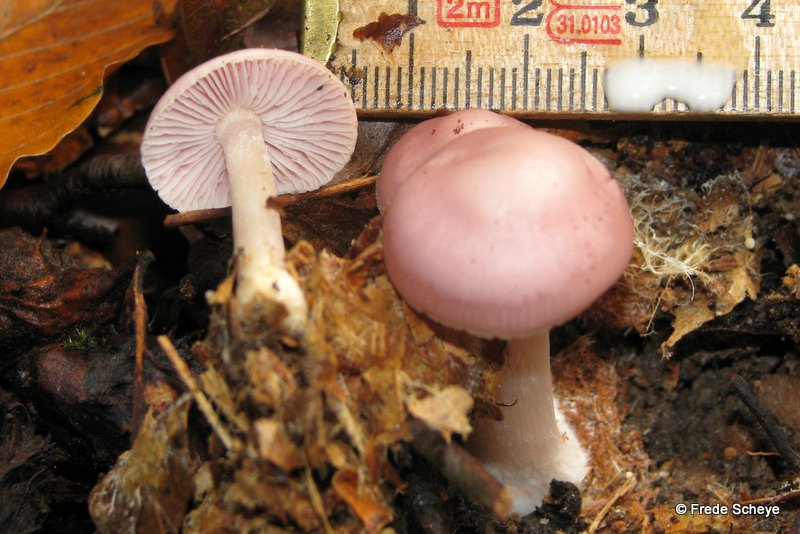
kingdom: Fungi
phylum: Basidiomycota
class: Agaricomycetes
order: Agaricales
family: Mycenaceae
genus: Mycena
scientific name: Mycena rosea
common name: rosa huesvamp
